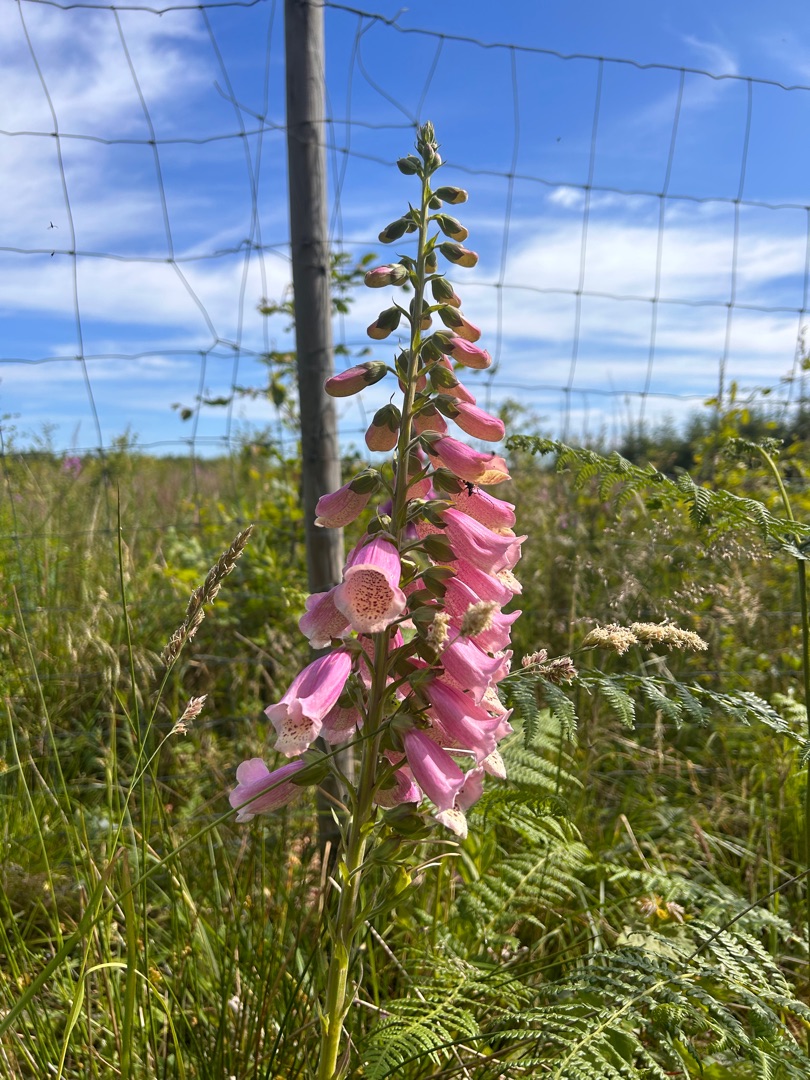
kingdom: Plantae
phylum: Tracheophyta
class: Magnoliopsida
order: Lamiales
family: Plantaginaceae
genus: Digitalis
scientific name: Digitalis purpurea
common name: Almindelig fingerbøl
